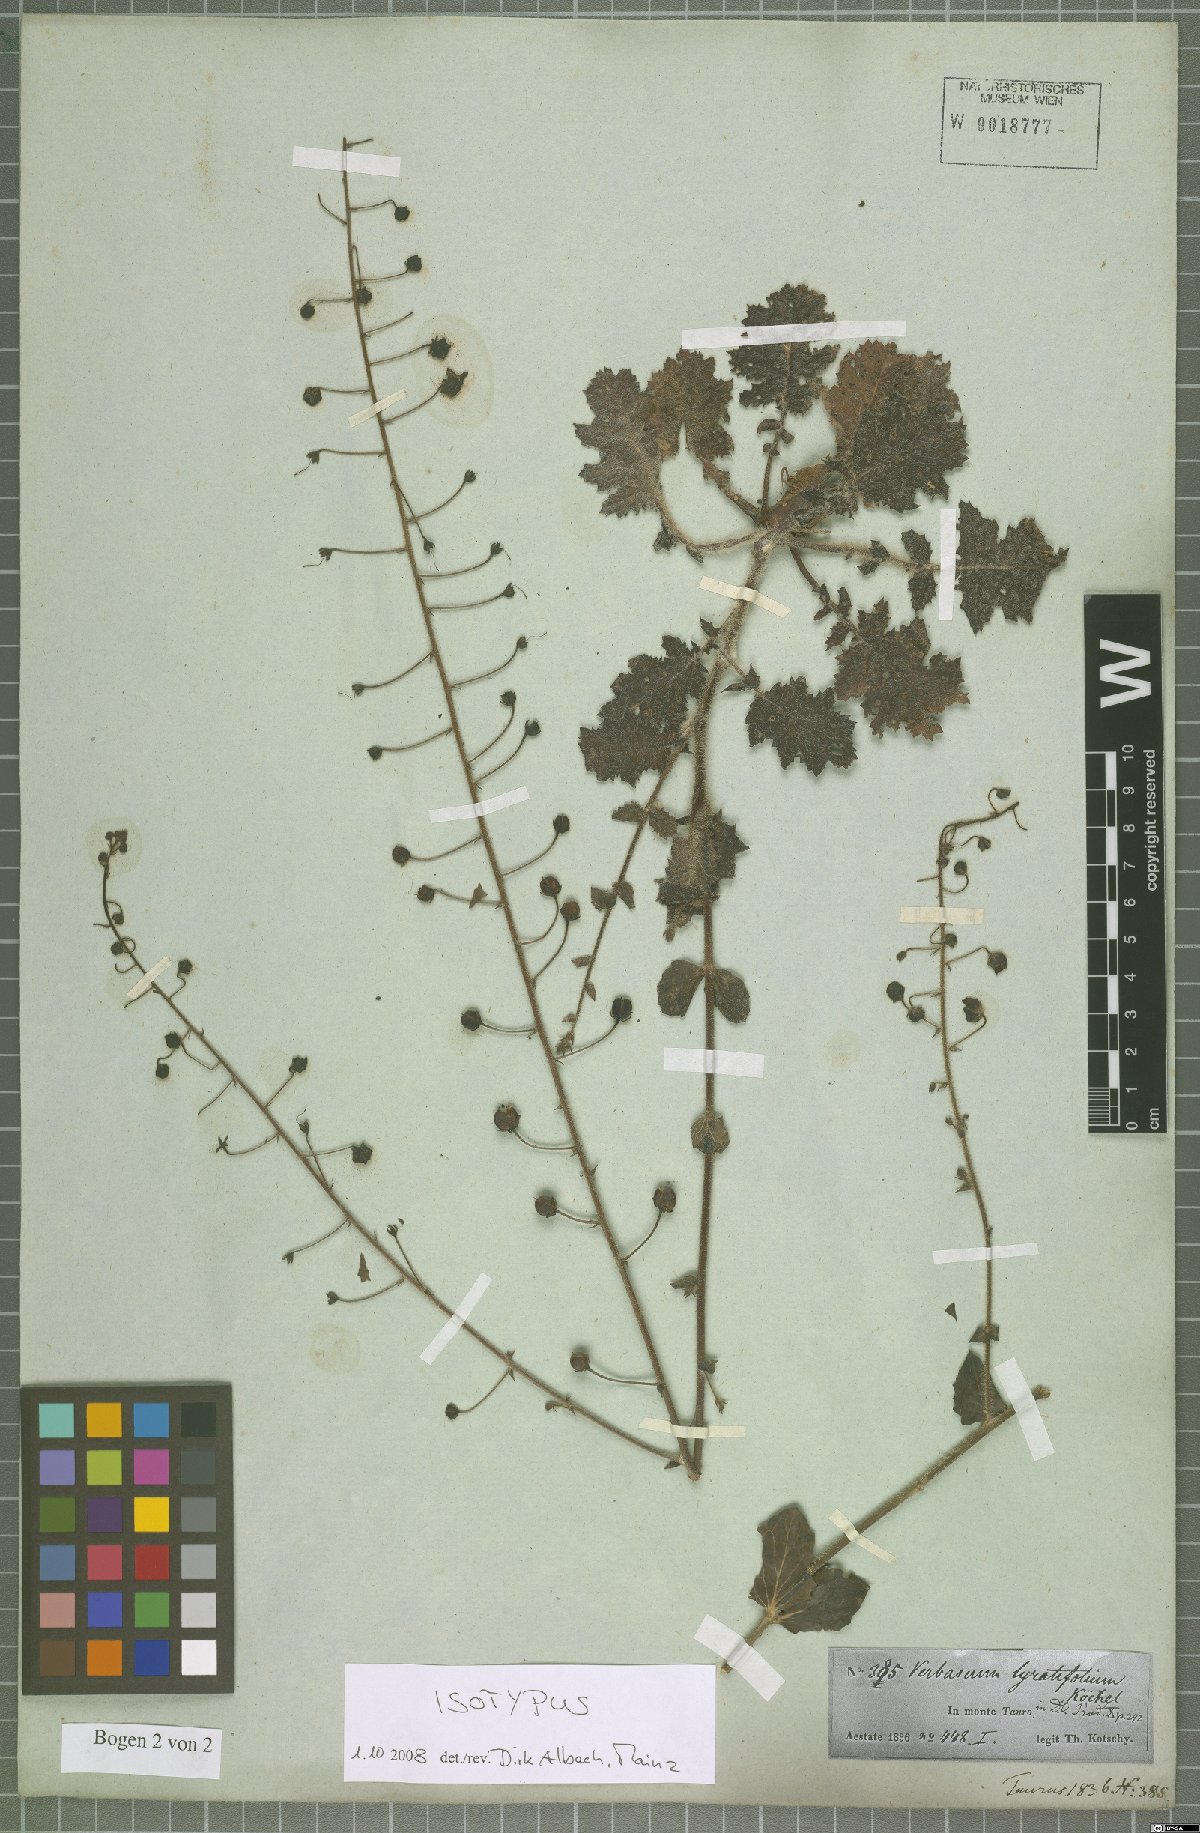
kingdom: Plantae
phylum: Tracheophyta
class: Magnoliopsida
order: Lamiales
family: Scrophulariaceae
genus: Verbascum
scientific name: Verbascum lyratifolium
